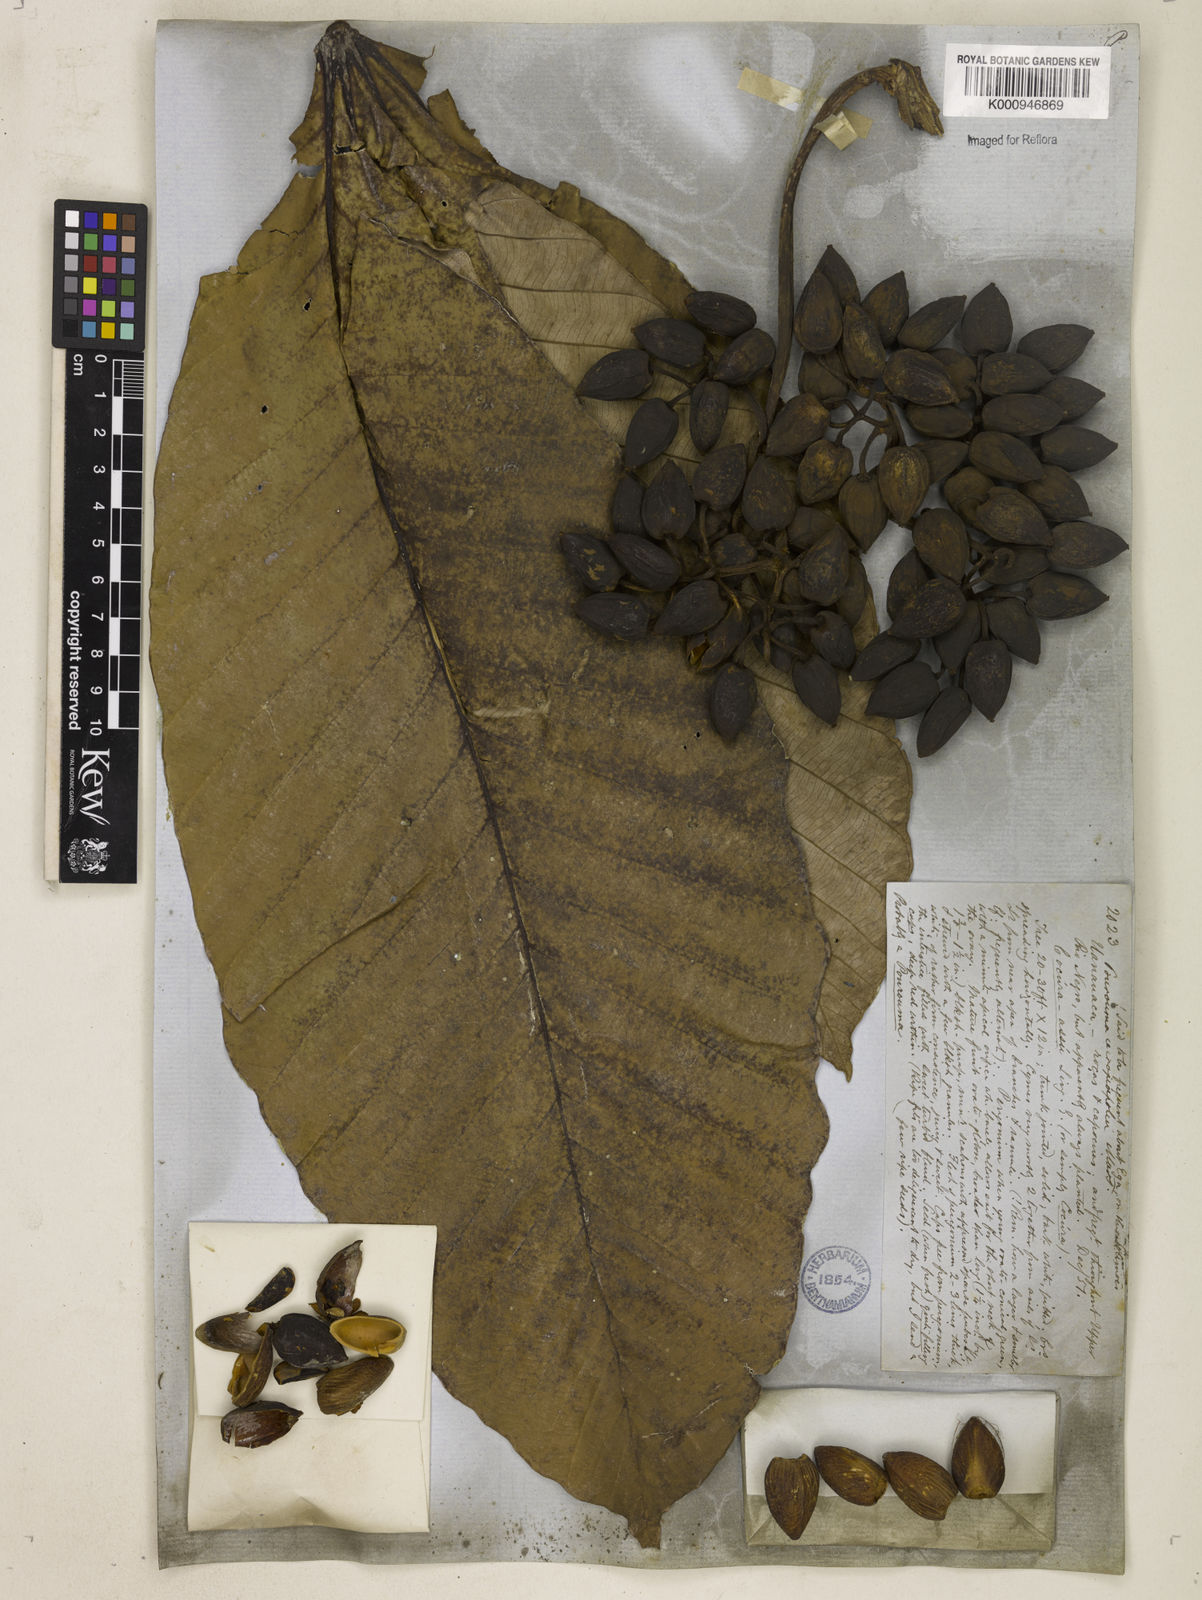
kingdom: Plantae
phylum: Tracheophyta
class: Magnoliopsida
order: Rosales
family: Urticaceae
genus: Pourouma
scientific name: Pourouma cecropiifolia
